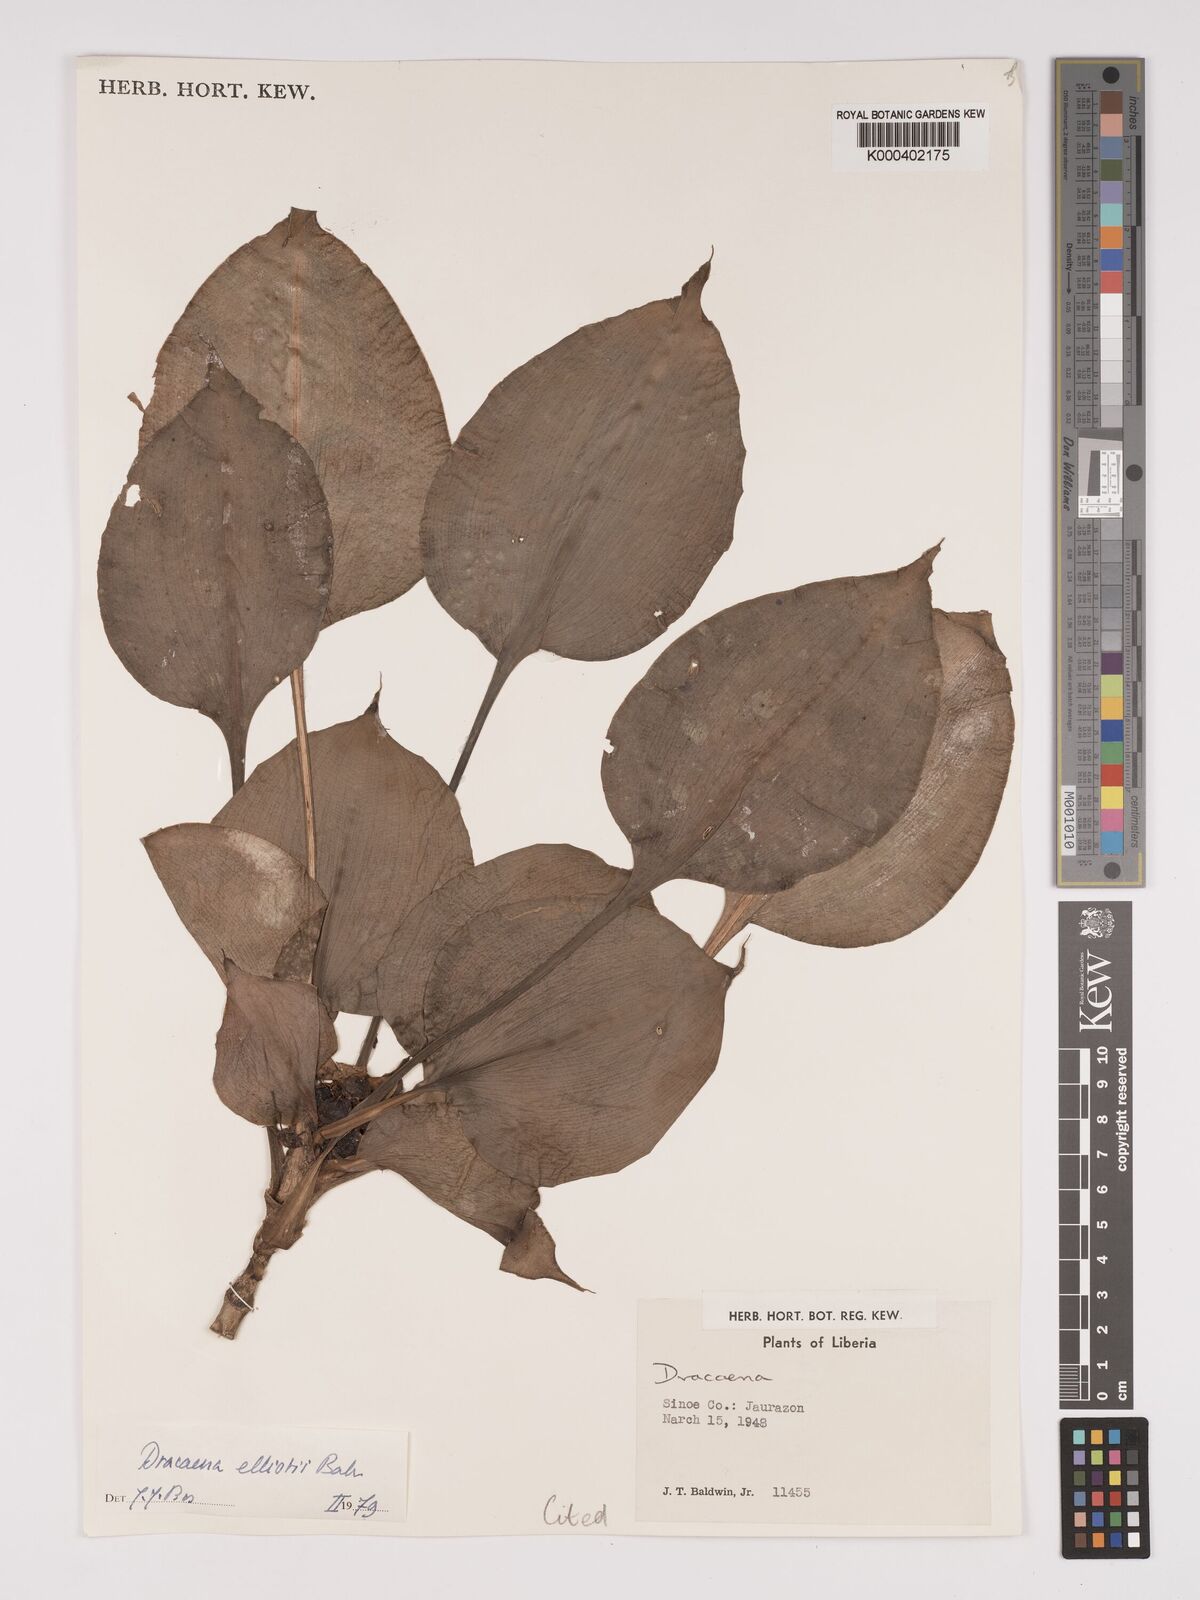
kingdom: Plantae
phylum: Tracheophyta
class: Liliopsida
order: Asparagales
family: Asparagaceae
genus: Dracaena
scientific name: Dracaena cristula
